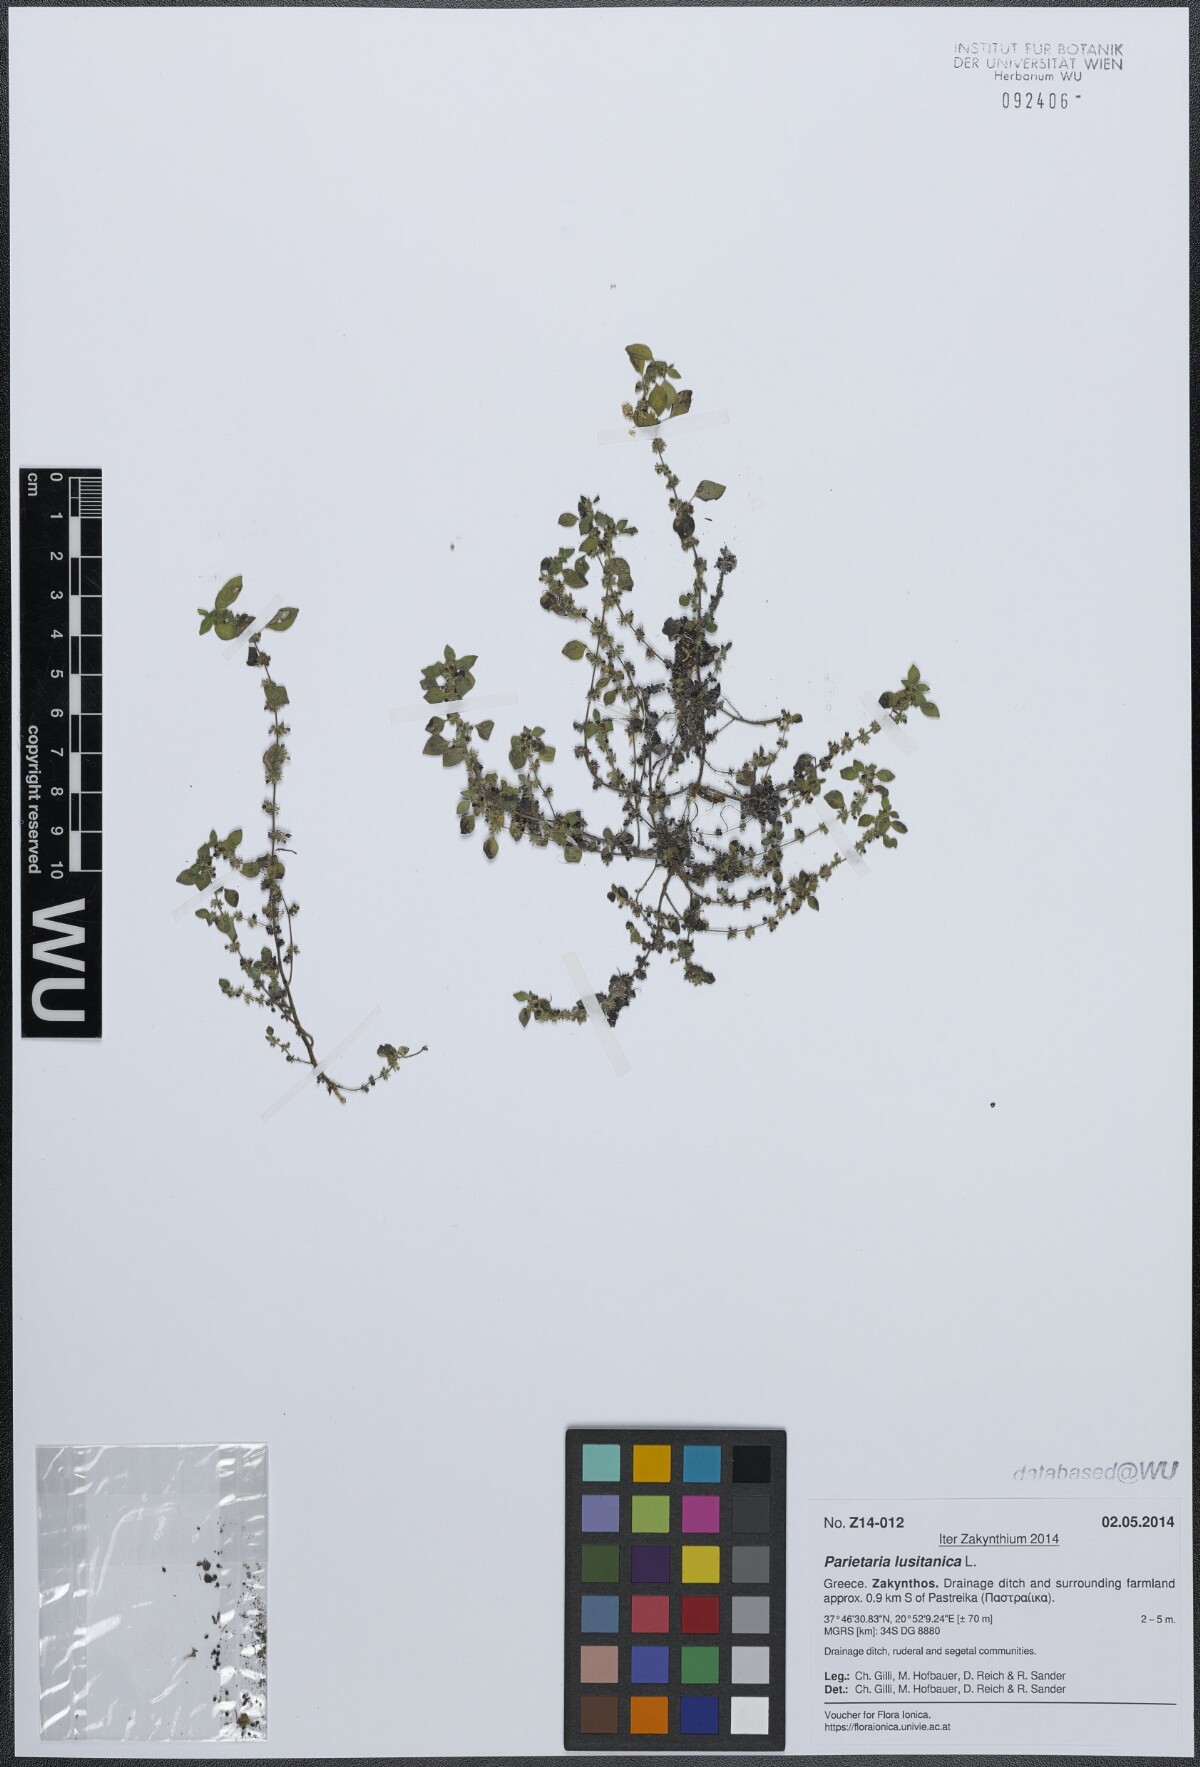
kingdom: Plantae
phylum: Tracheophyta
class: Magnoliopsida
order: Rosales
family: Urticaceae
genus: Parietaria
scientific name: Parietaria lusitanica
